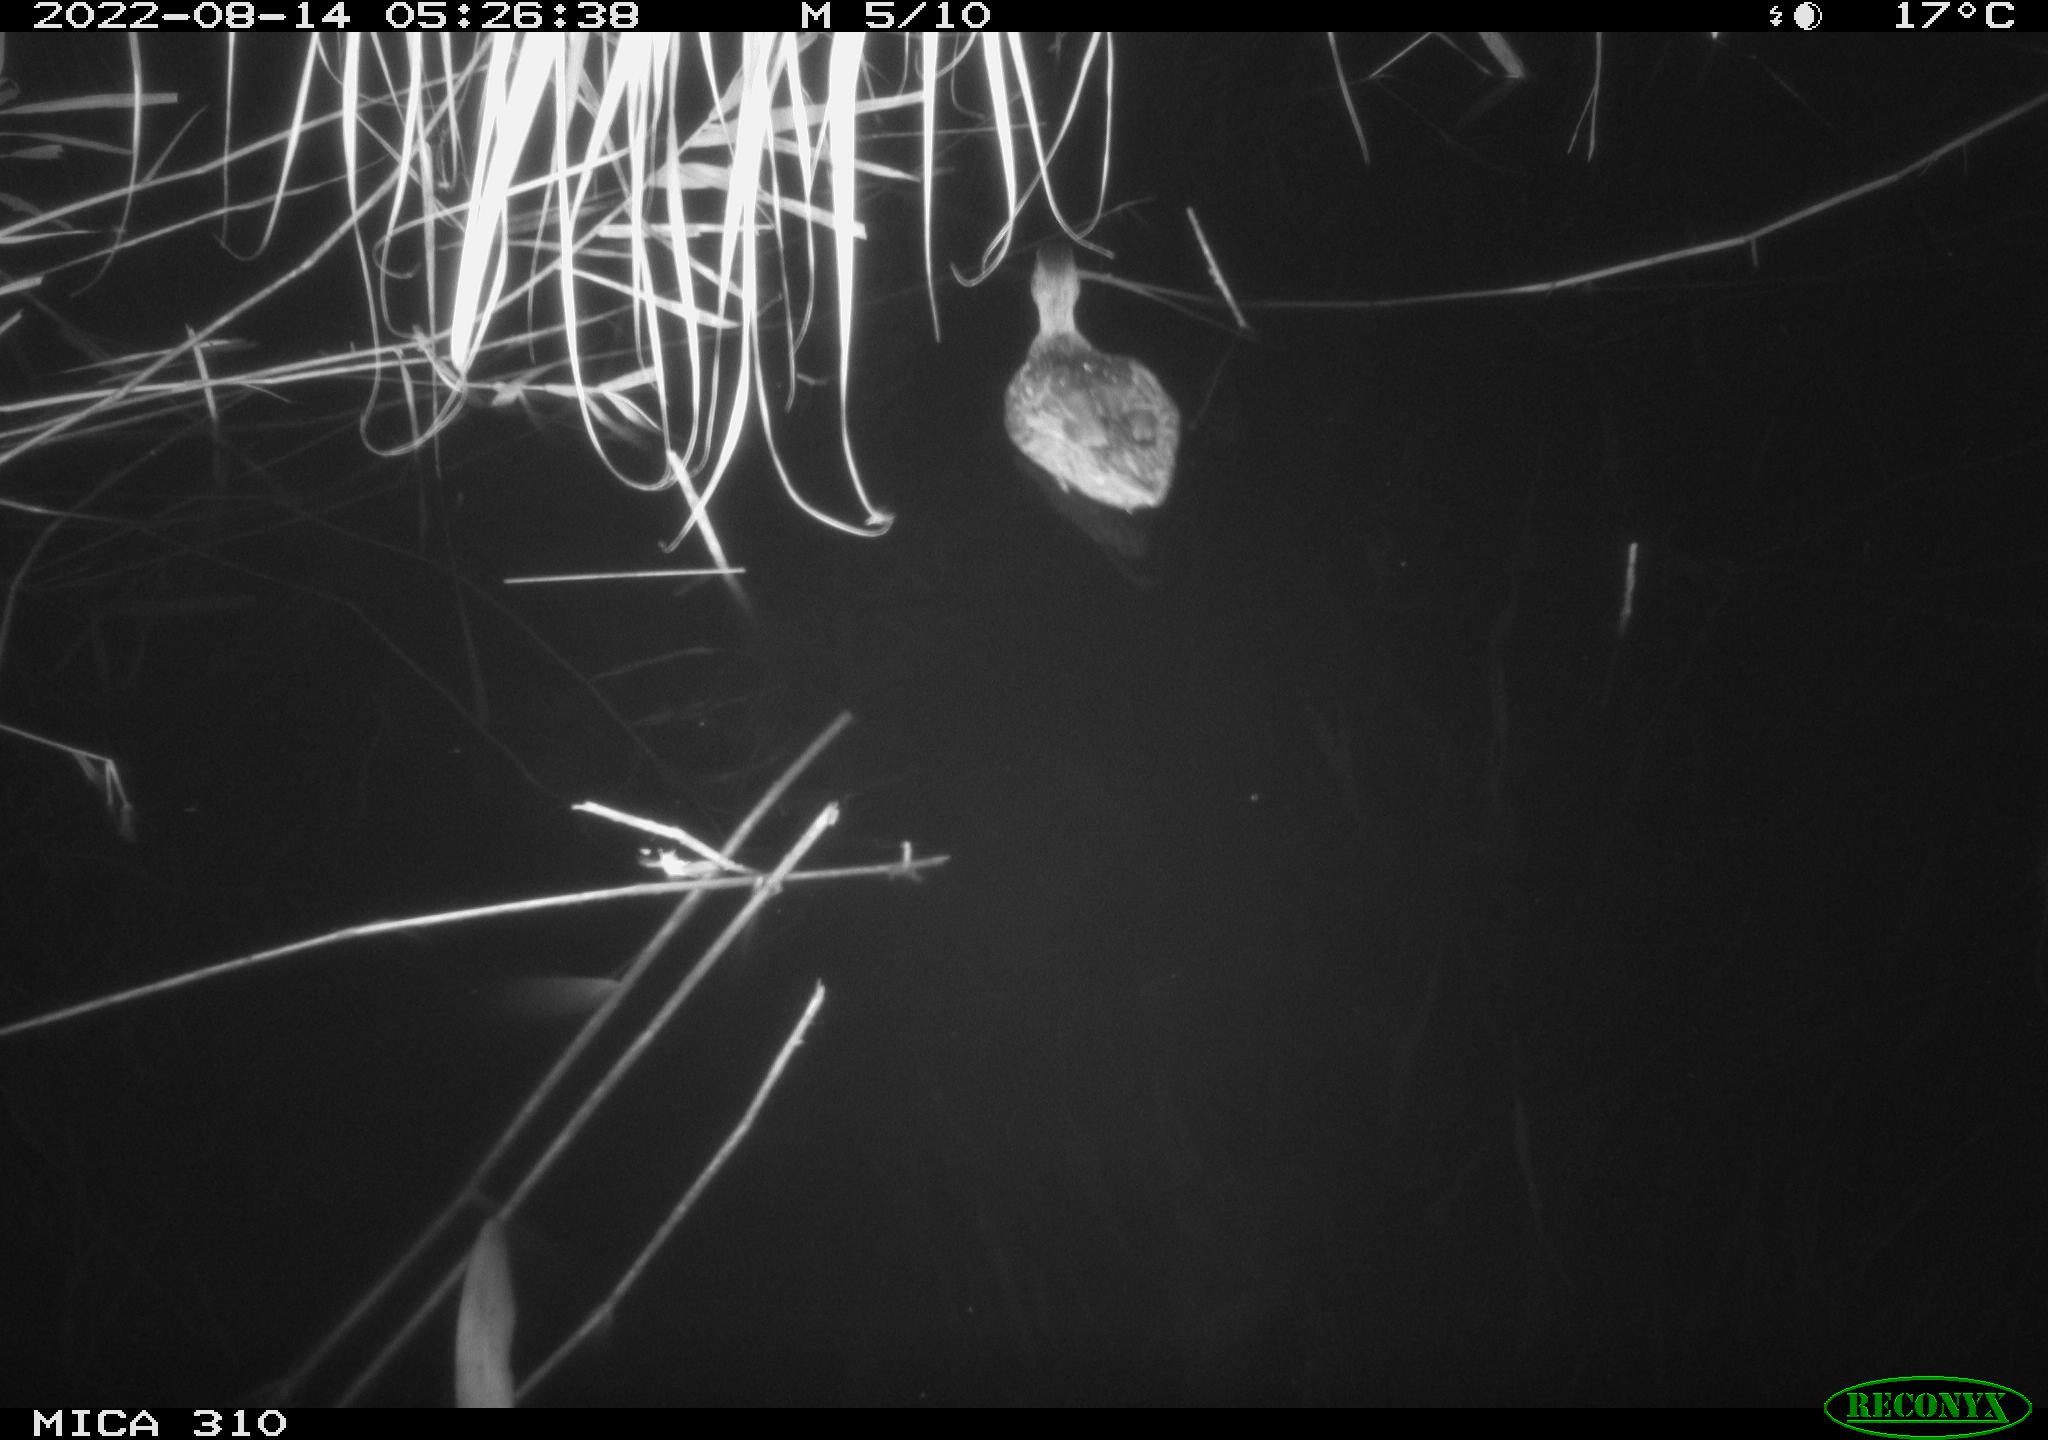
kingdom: Animalia
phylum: Chordata
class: Aves
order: Anseriformes
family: Anatidae
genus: Anas
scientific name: Anas platyrhynchos
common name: Mallard
